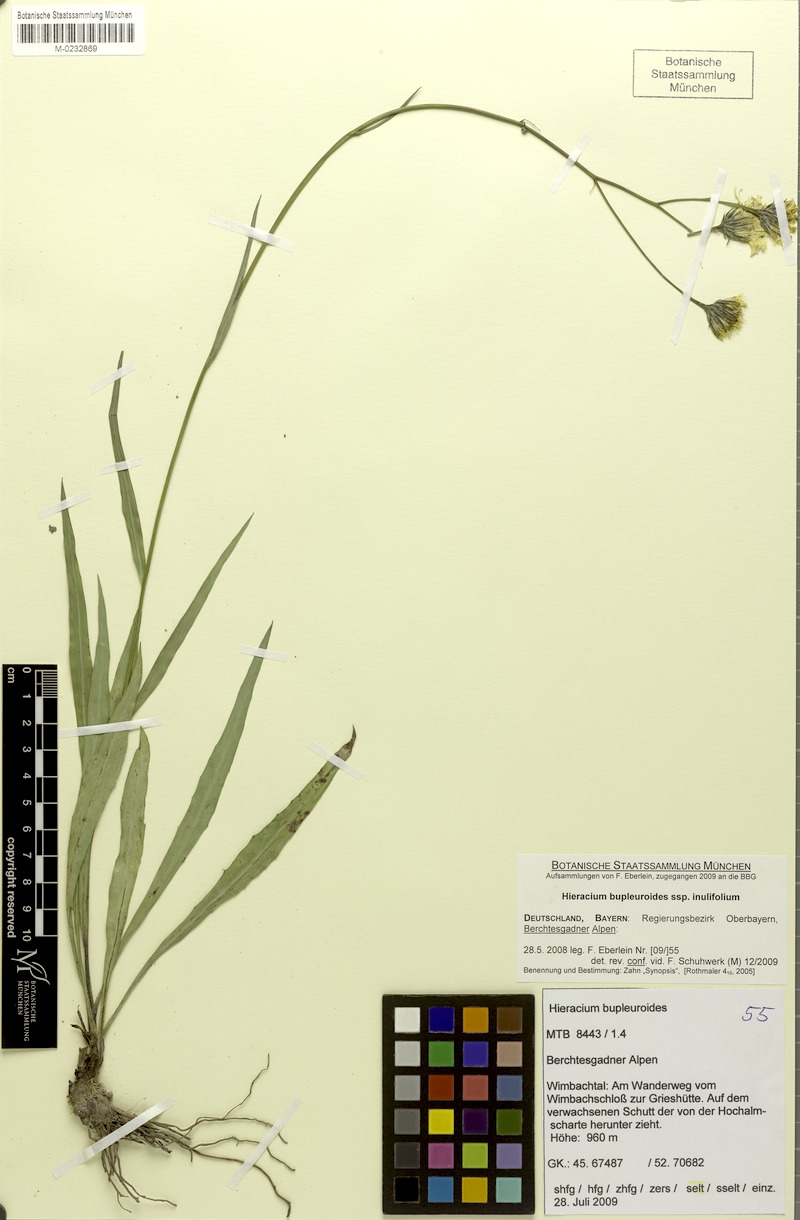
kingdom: Plantae
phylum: Tracheophyta
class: Magnoliopsida
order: Asterales
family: Asteraceae
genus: Hieracium
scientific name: Hieracium bupleuroides
